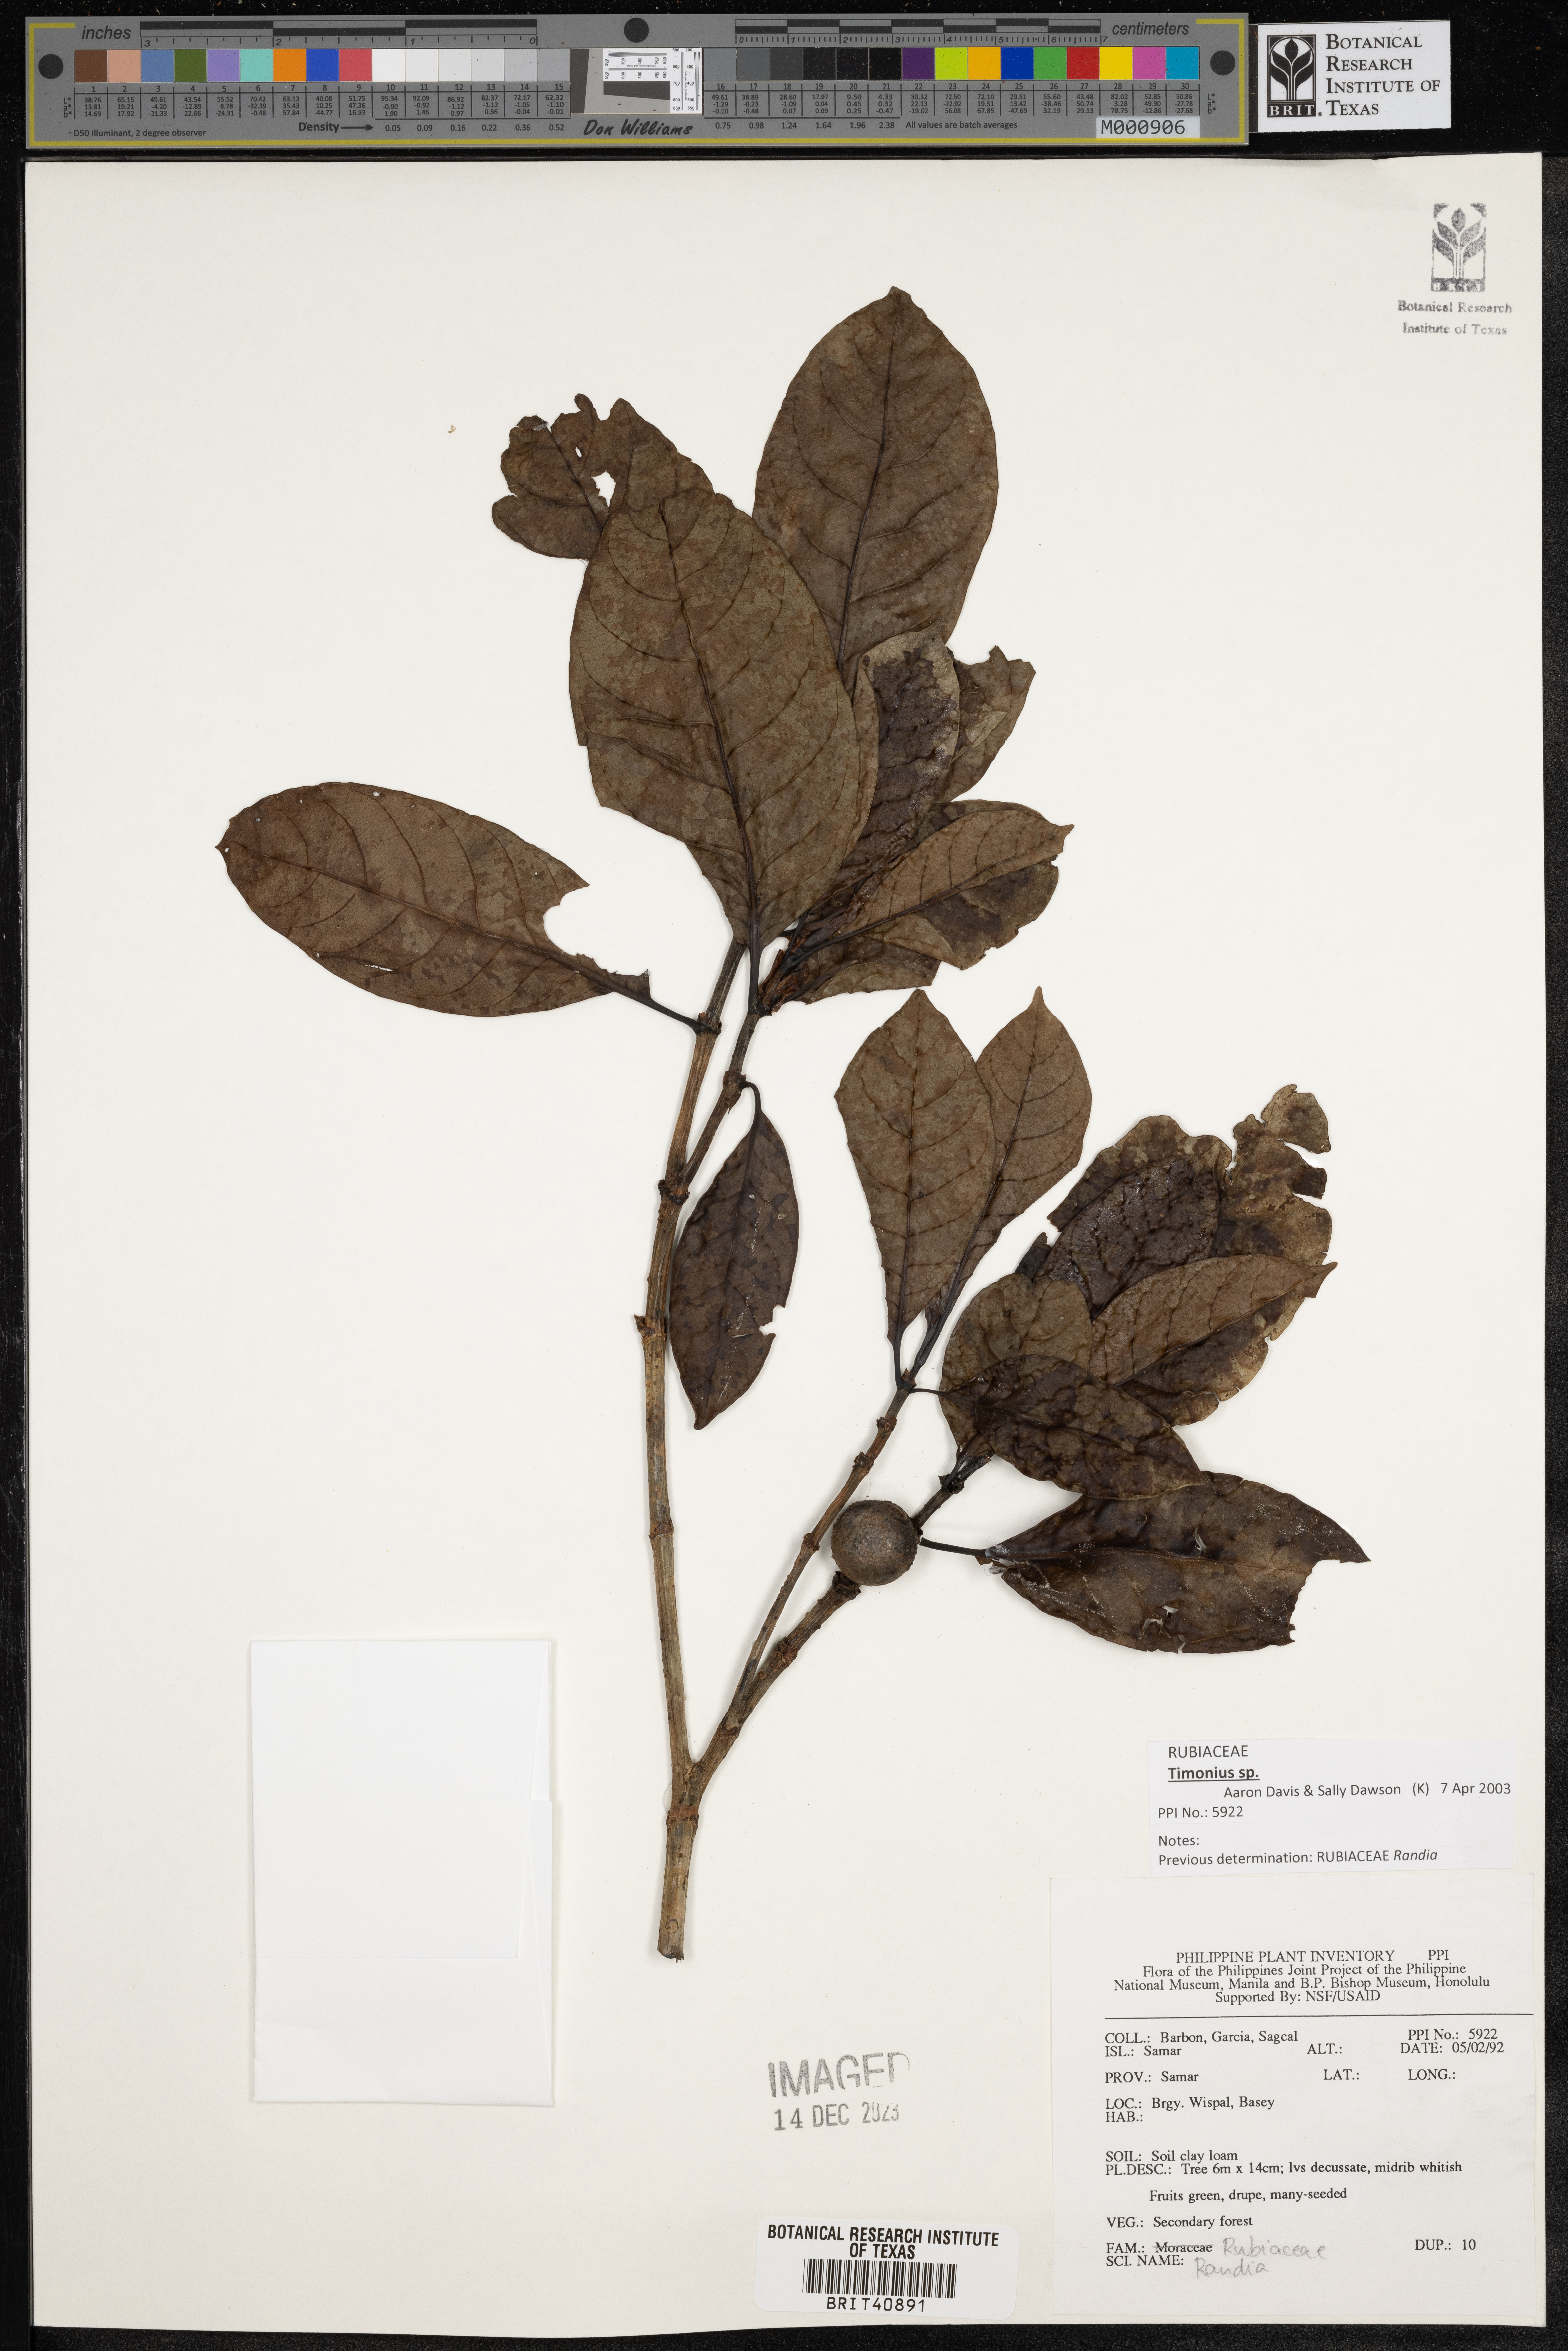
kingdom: Plantae
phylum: Tracheophyta
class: Magnoliopsida
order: Gentianales
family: Rubiaceae
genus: Randia
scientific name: Randia
